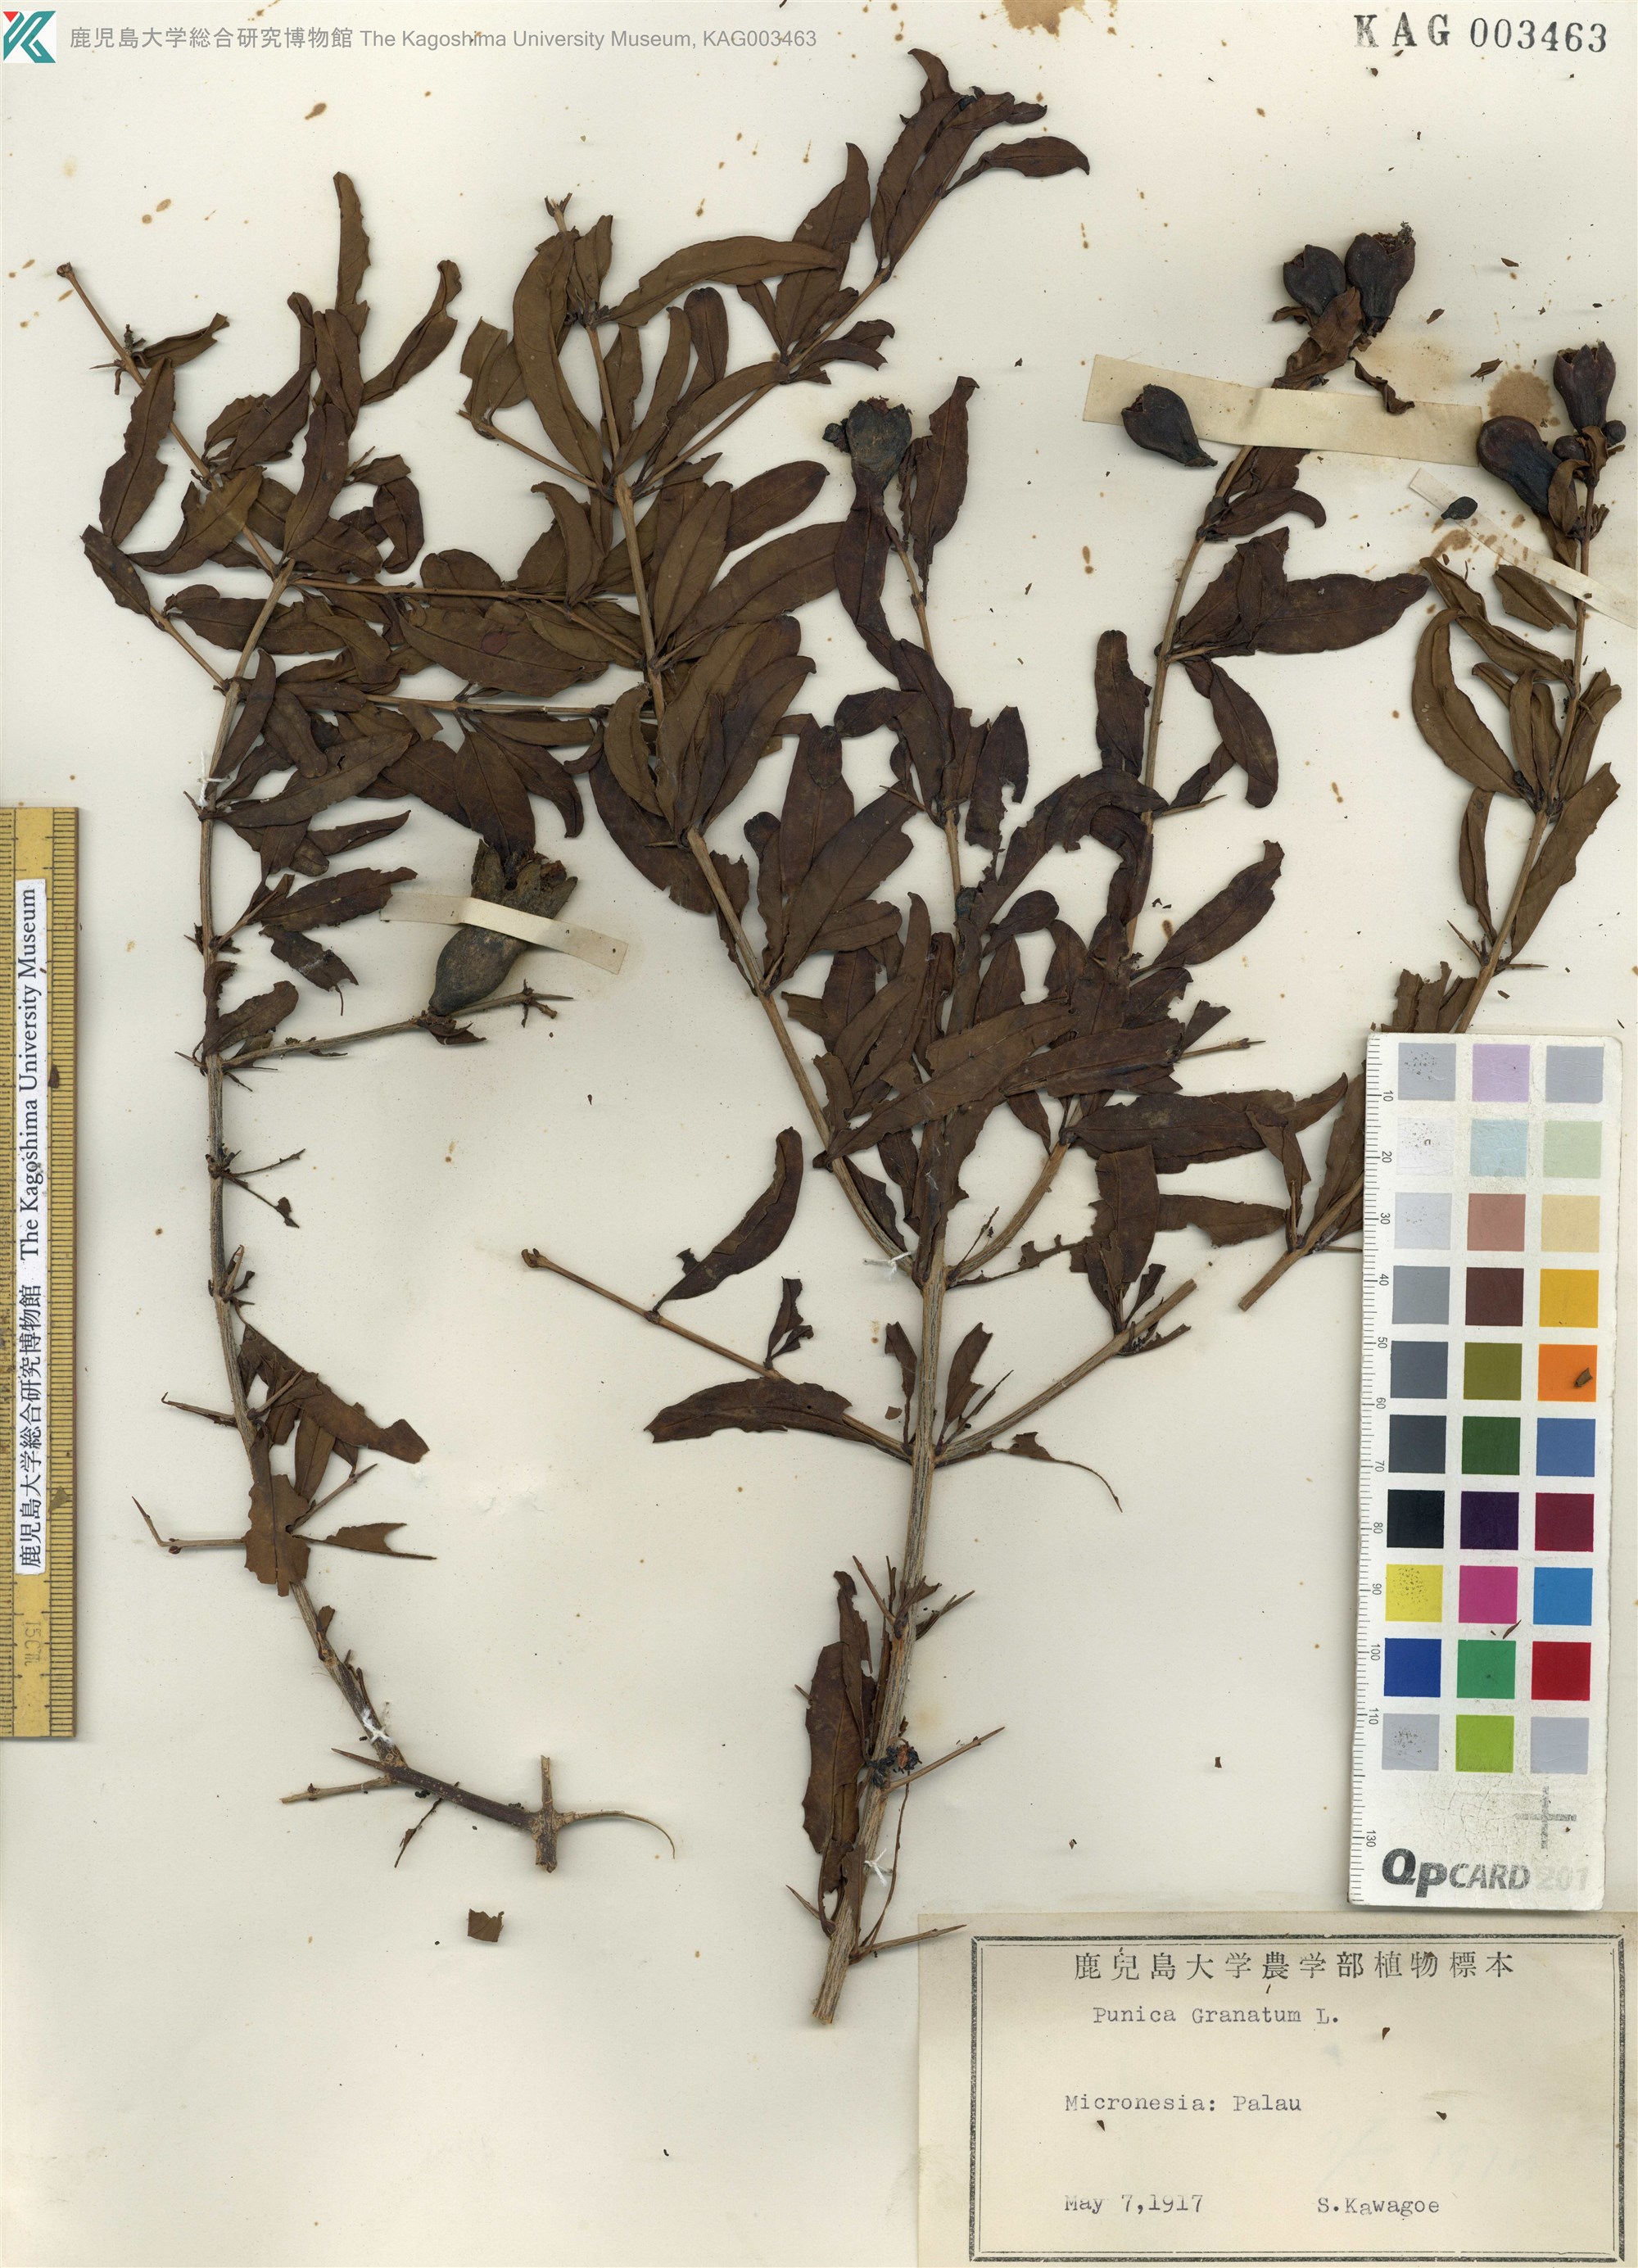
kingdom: Plantae
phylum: Tracheophyta
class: Magnoliopsida
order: Myrtales
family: Lythraceae
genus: Punica
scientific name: Punica granatum
